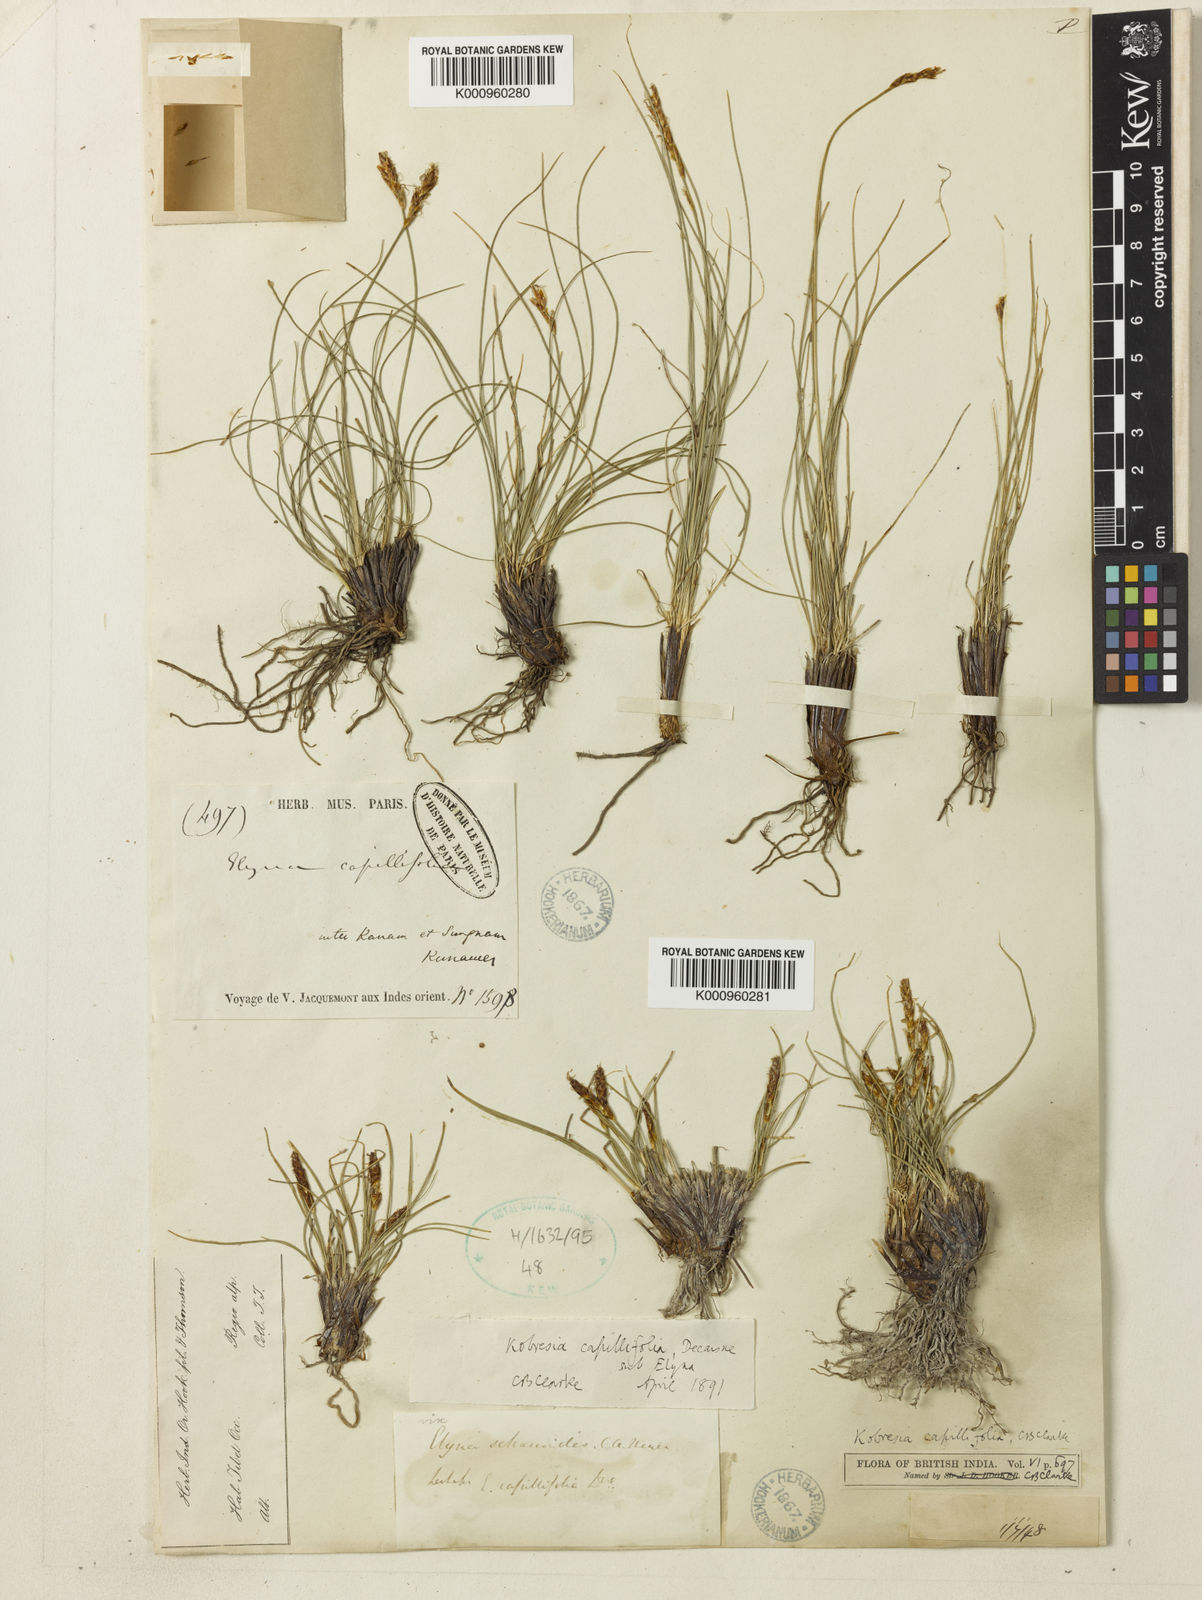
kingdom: Plantae
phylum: Tracheophyta
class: Liliopsida
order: Poales
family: Cyperaceae
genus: Carex
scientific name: Carex capillifolia
